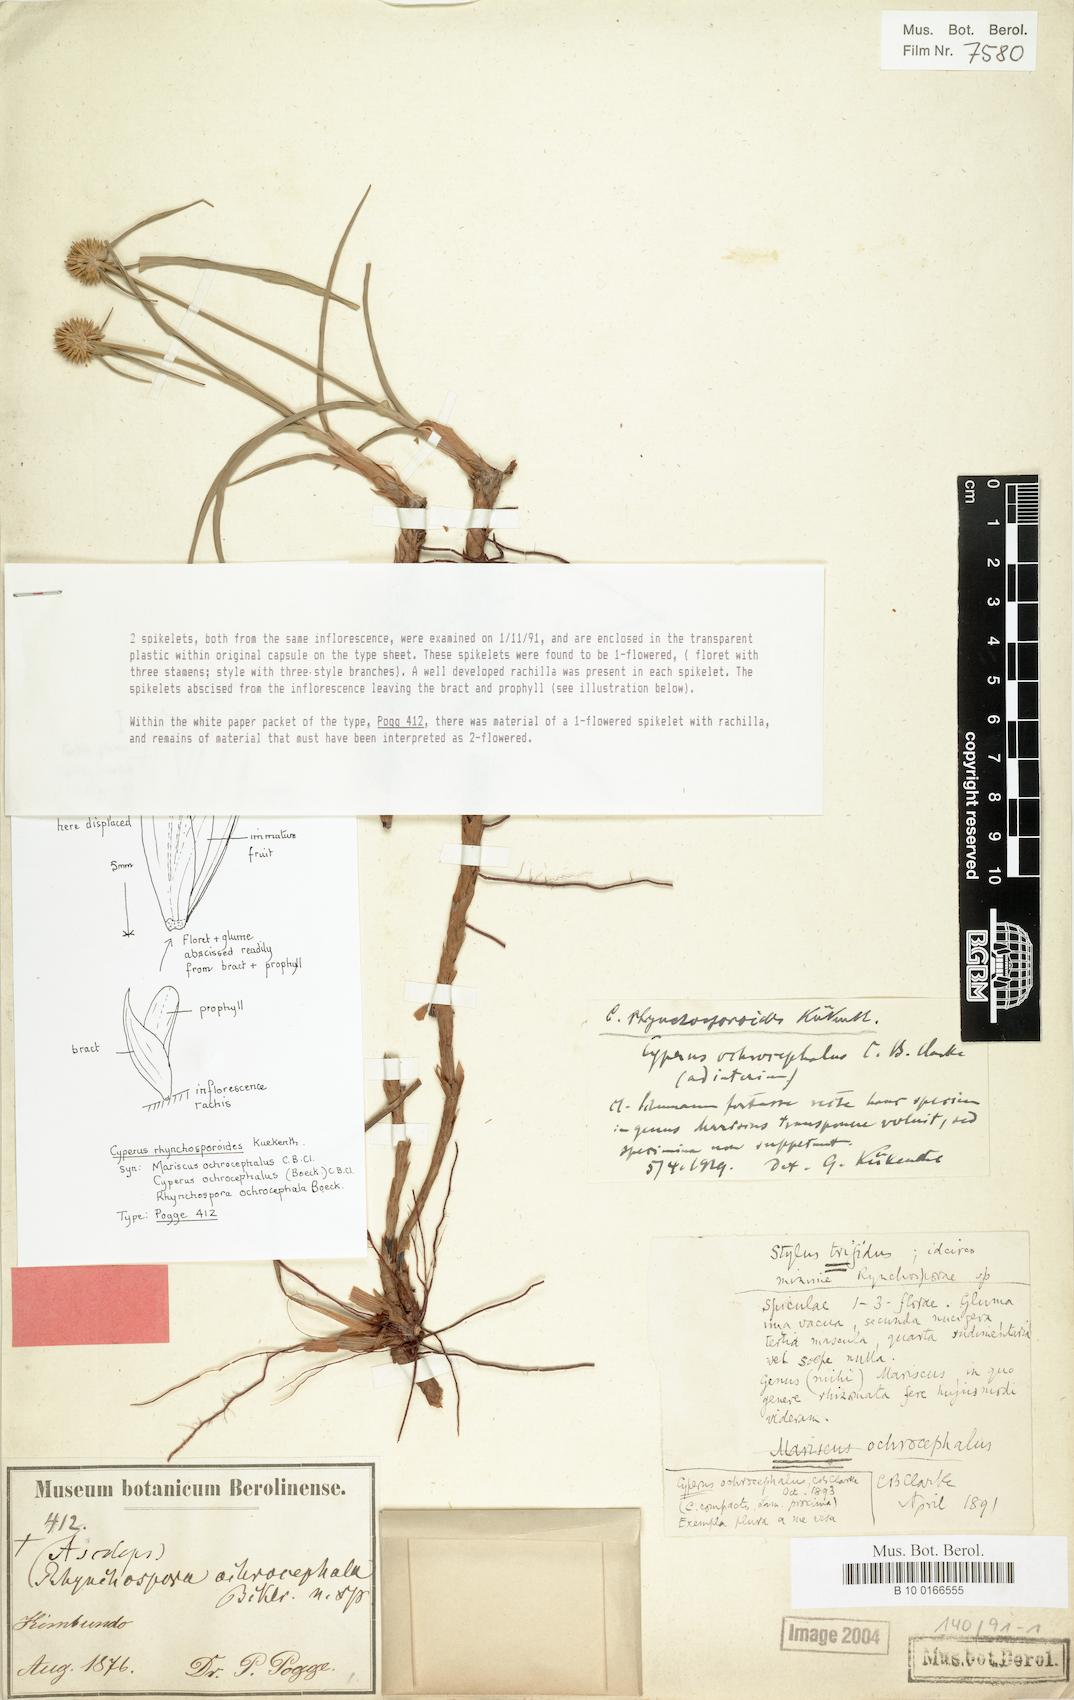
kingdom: Plantae
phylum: Tracheophyta
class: Liliopsida
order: Poales
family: Cyperaceae
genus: Cyperus
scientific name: Cyperus rhynchosporoides
